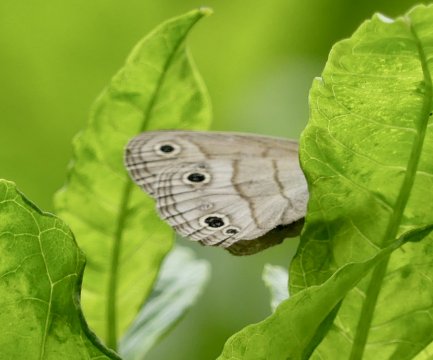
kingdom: Animalia
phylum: Arthropoda
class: Insecta
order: Lepidoptera
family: Nymphalidae
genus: Euptychia
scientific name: Euptychia cymela
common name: Little Wood Satyr
